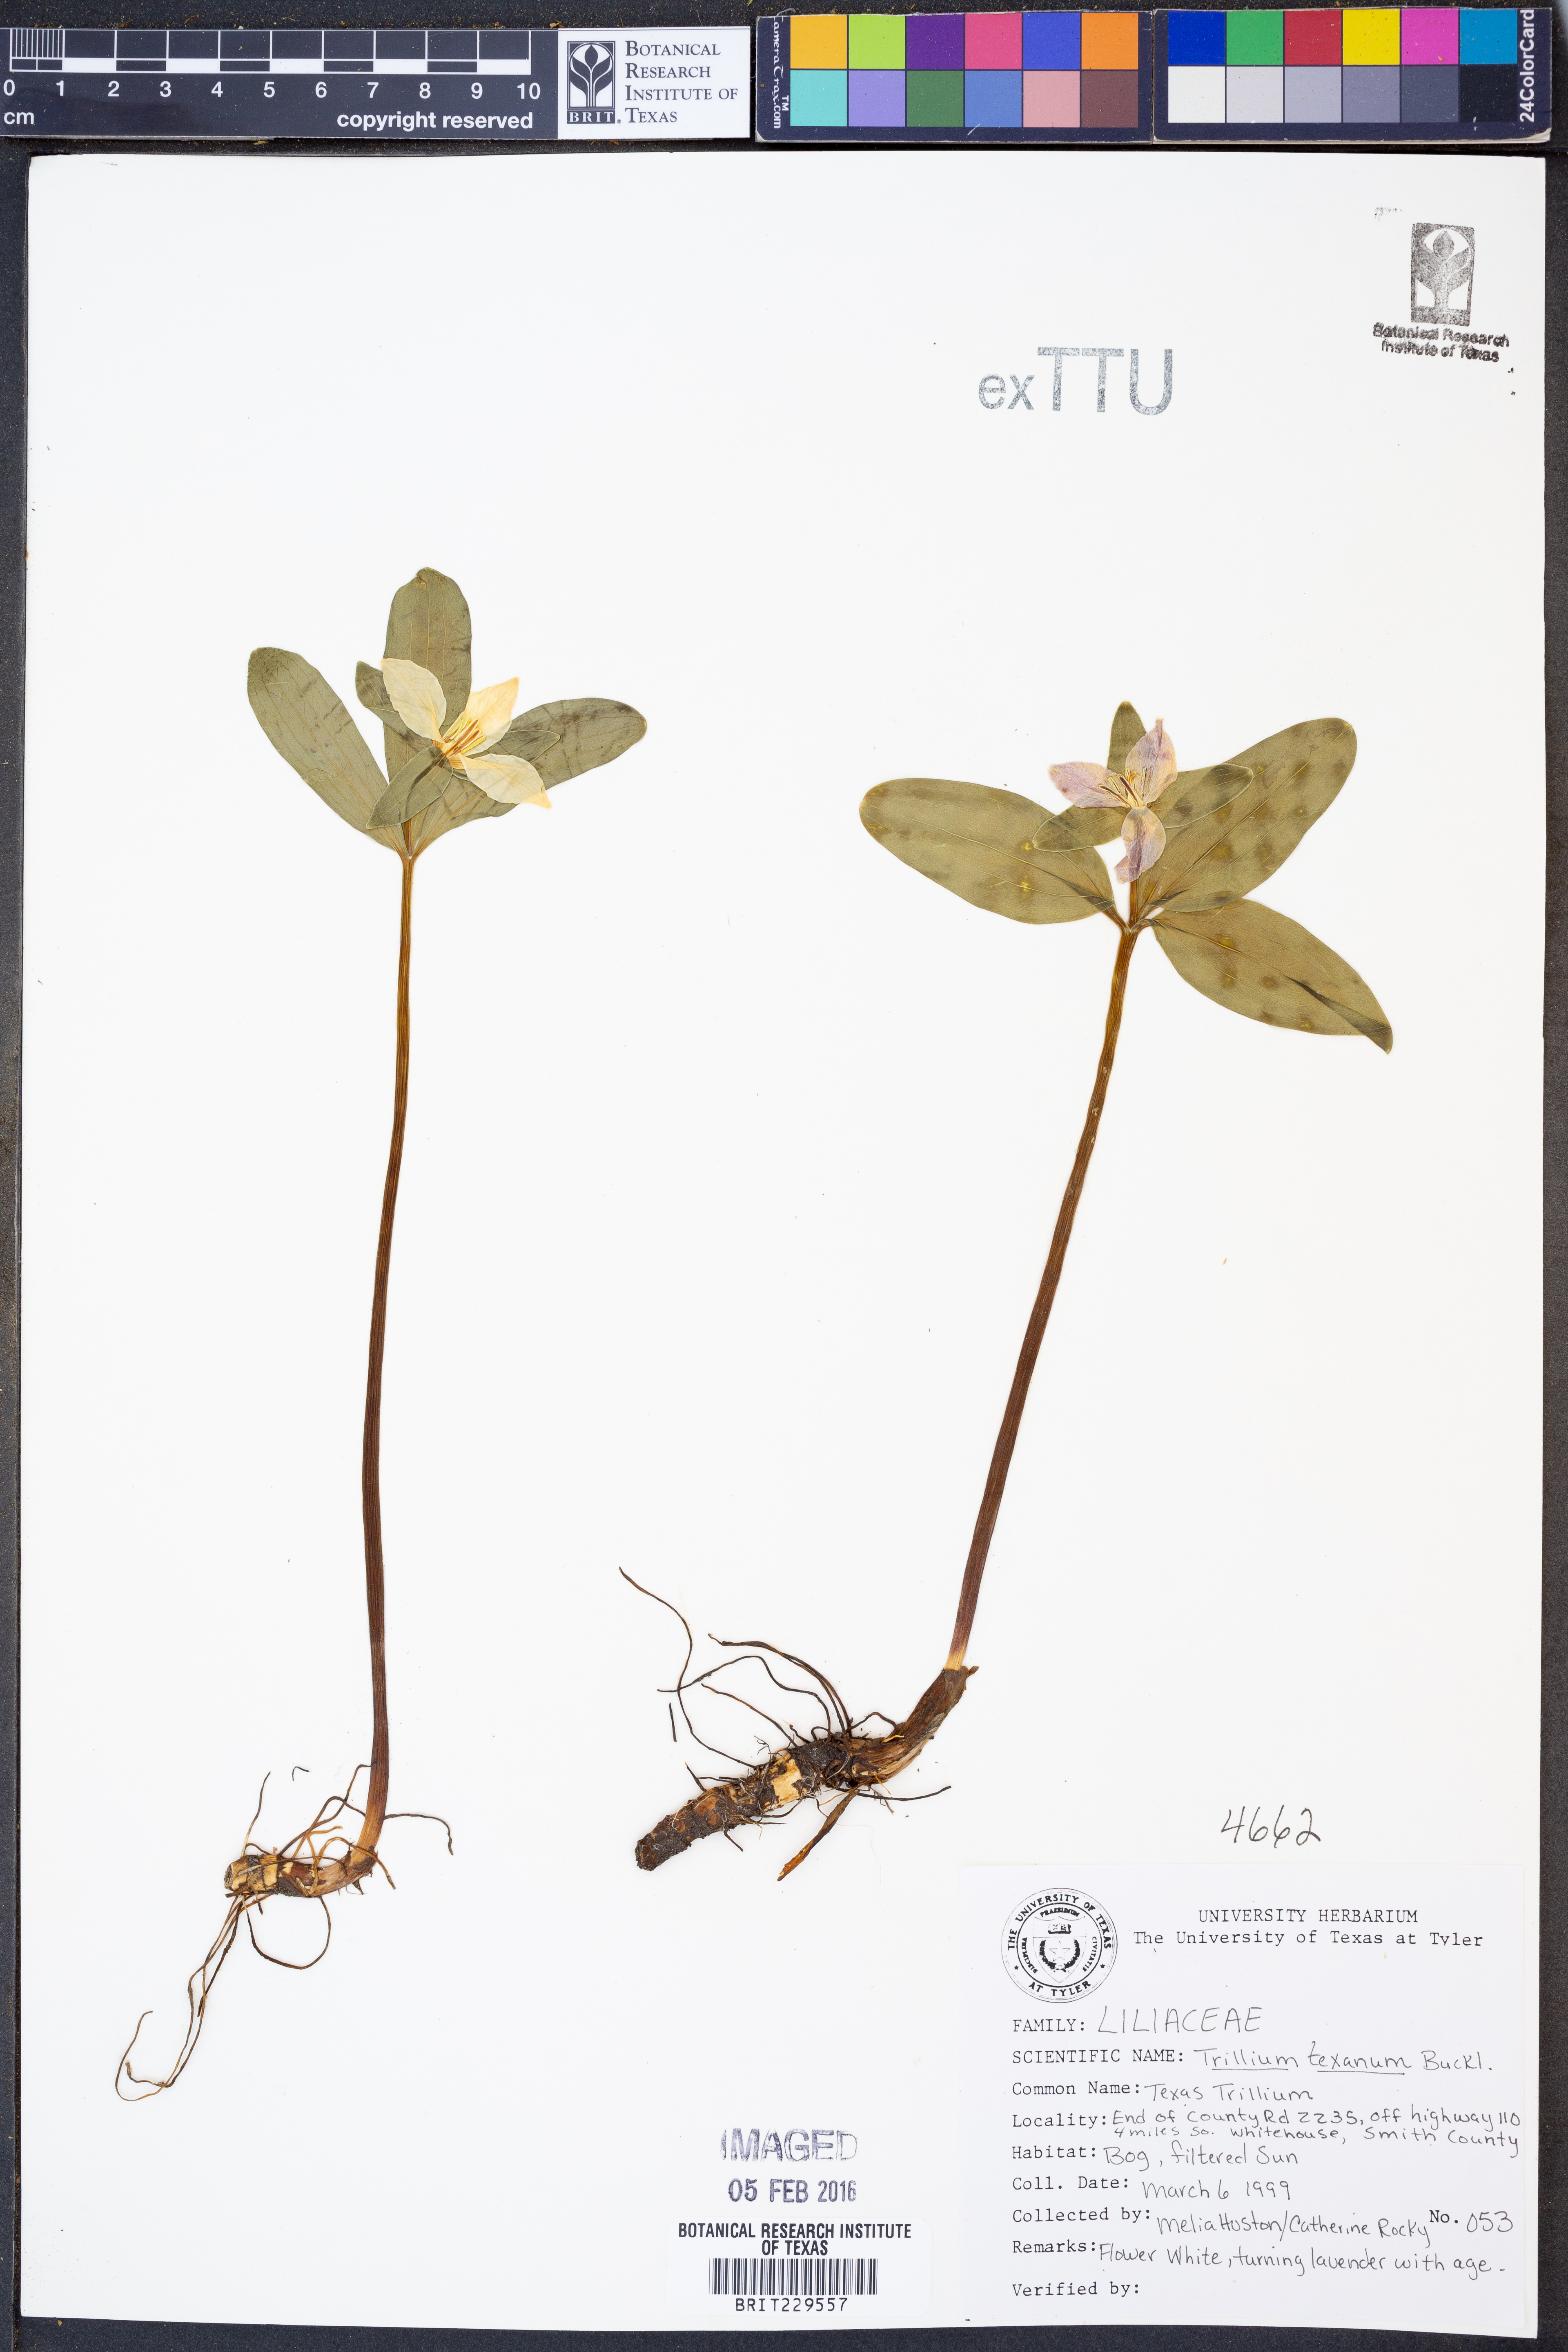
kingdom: Plantae
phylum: Tracheophyta
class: Liliopsida
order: Liliales
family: Melanthiaceae
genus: Trillium
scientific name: Trillium pusillum
